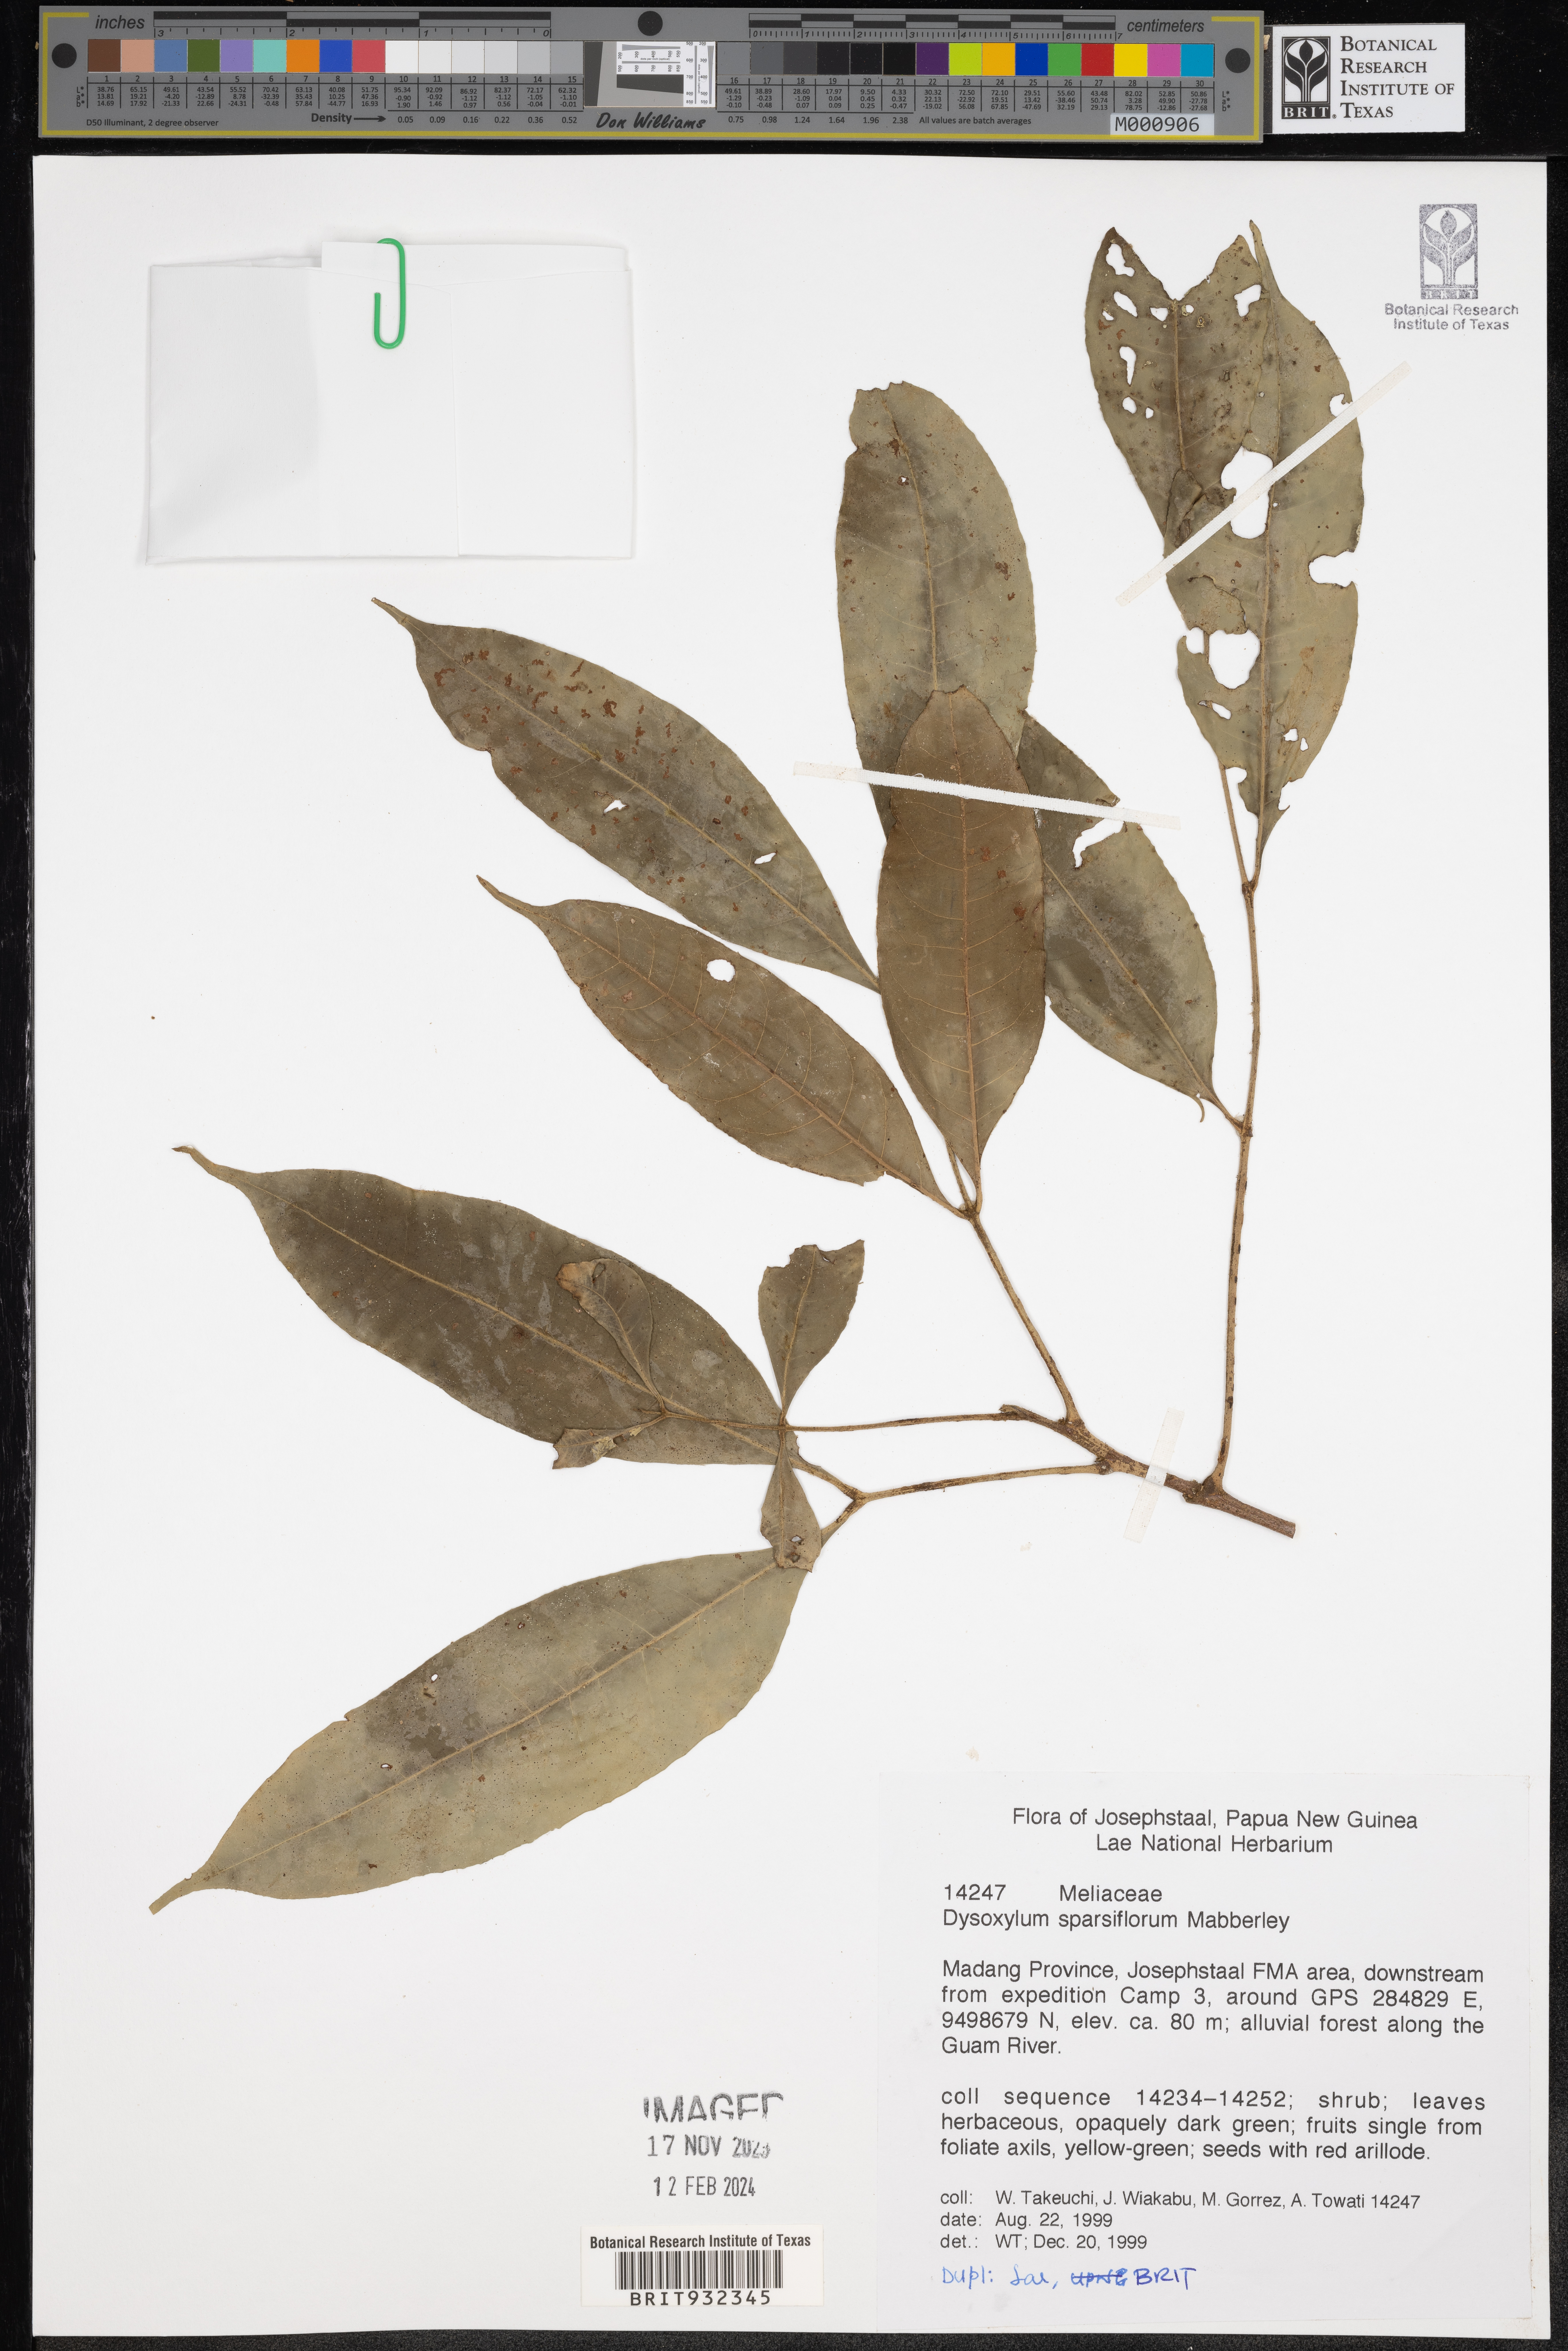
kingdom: Plantae
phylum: Tracheophyta
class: Magnoliopsida
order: Sapindales
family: Meliaceae
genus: Dysoxylum
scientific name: Dysoxylum
